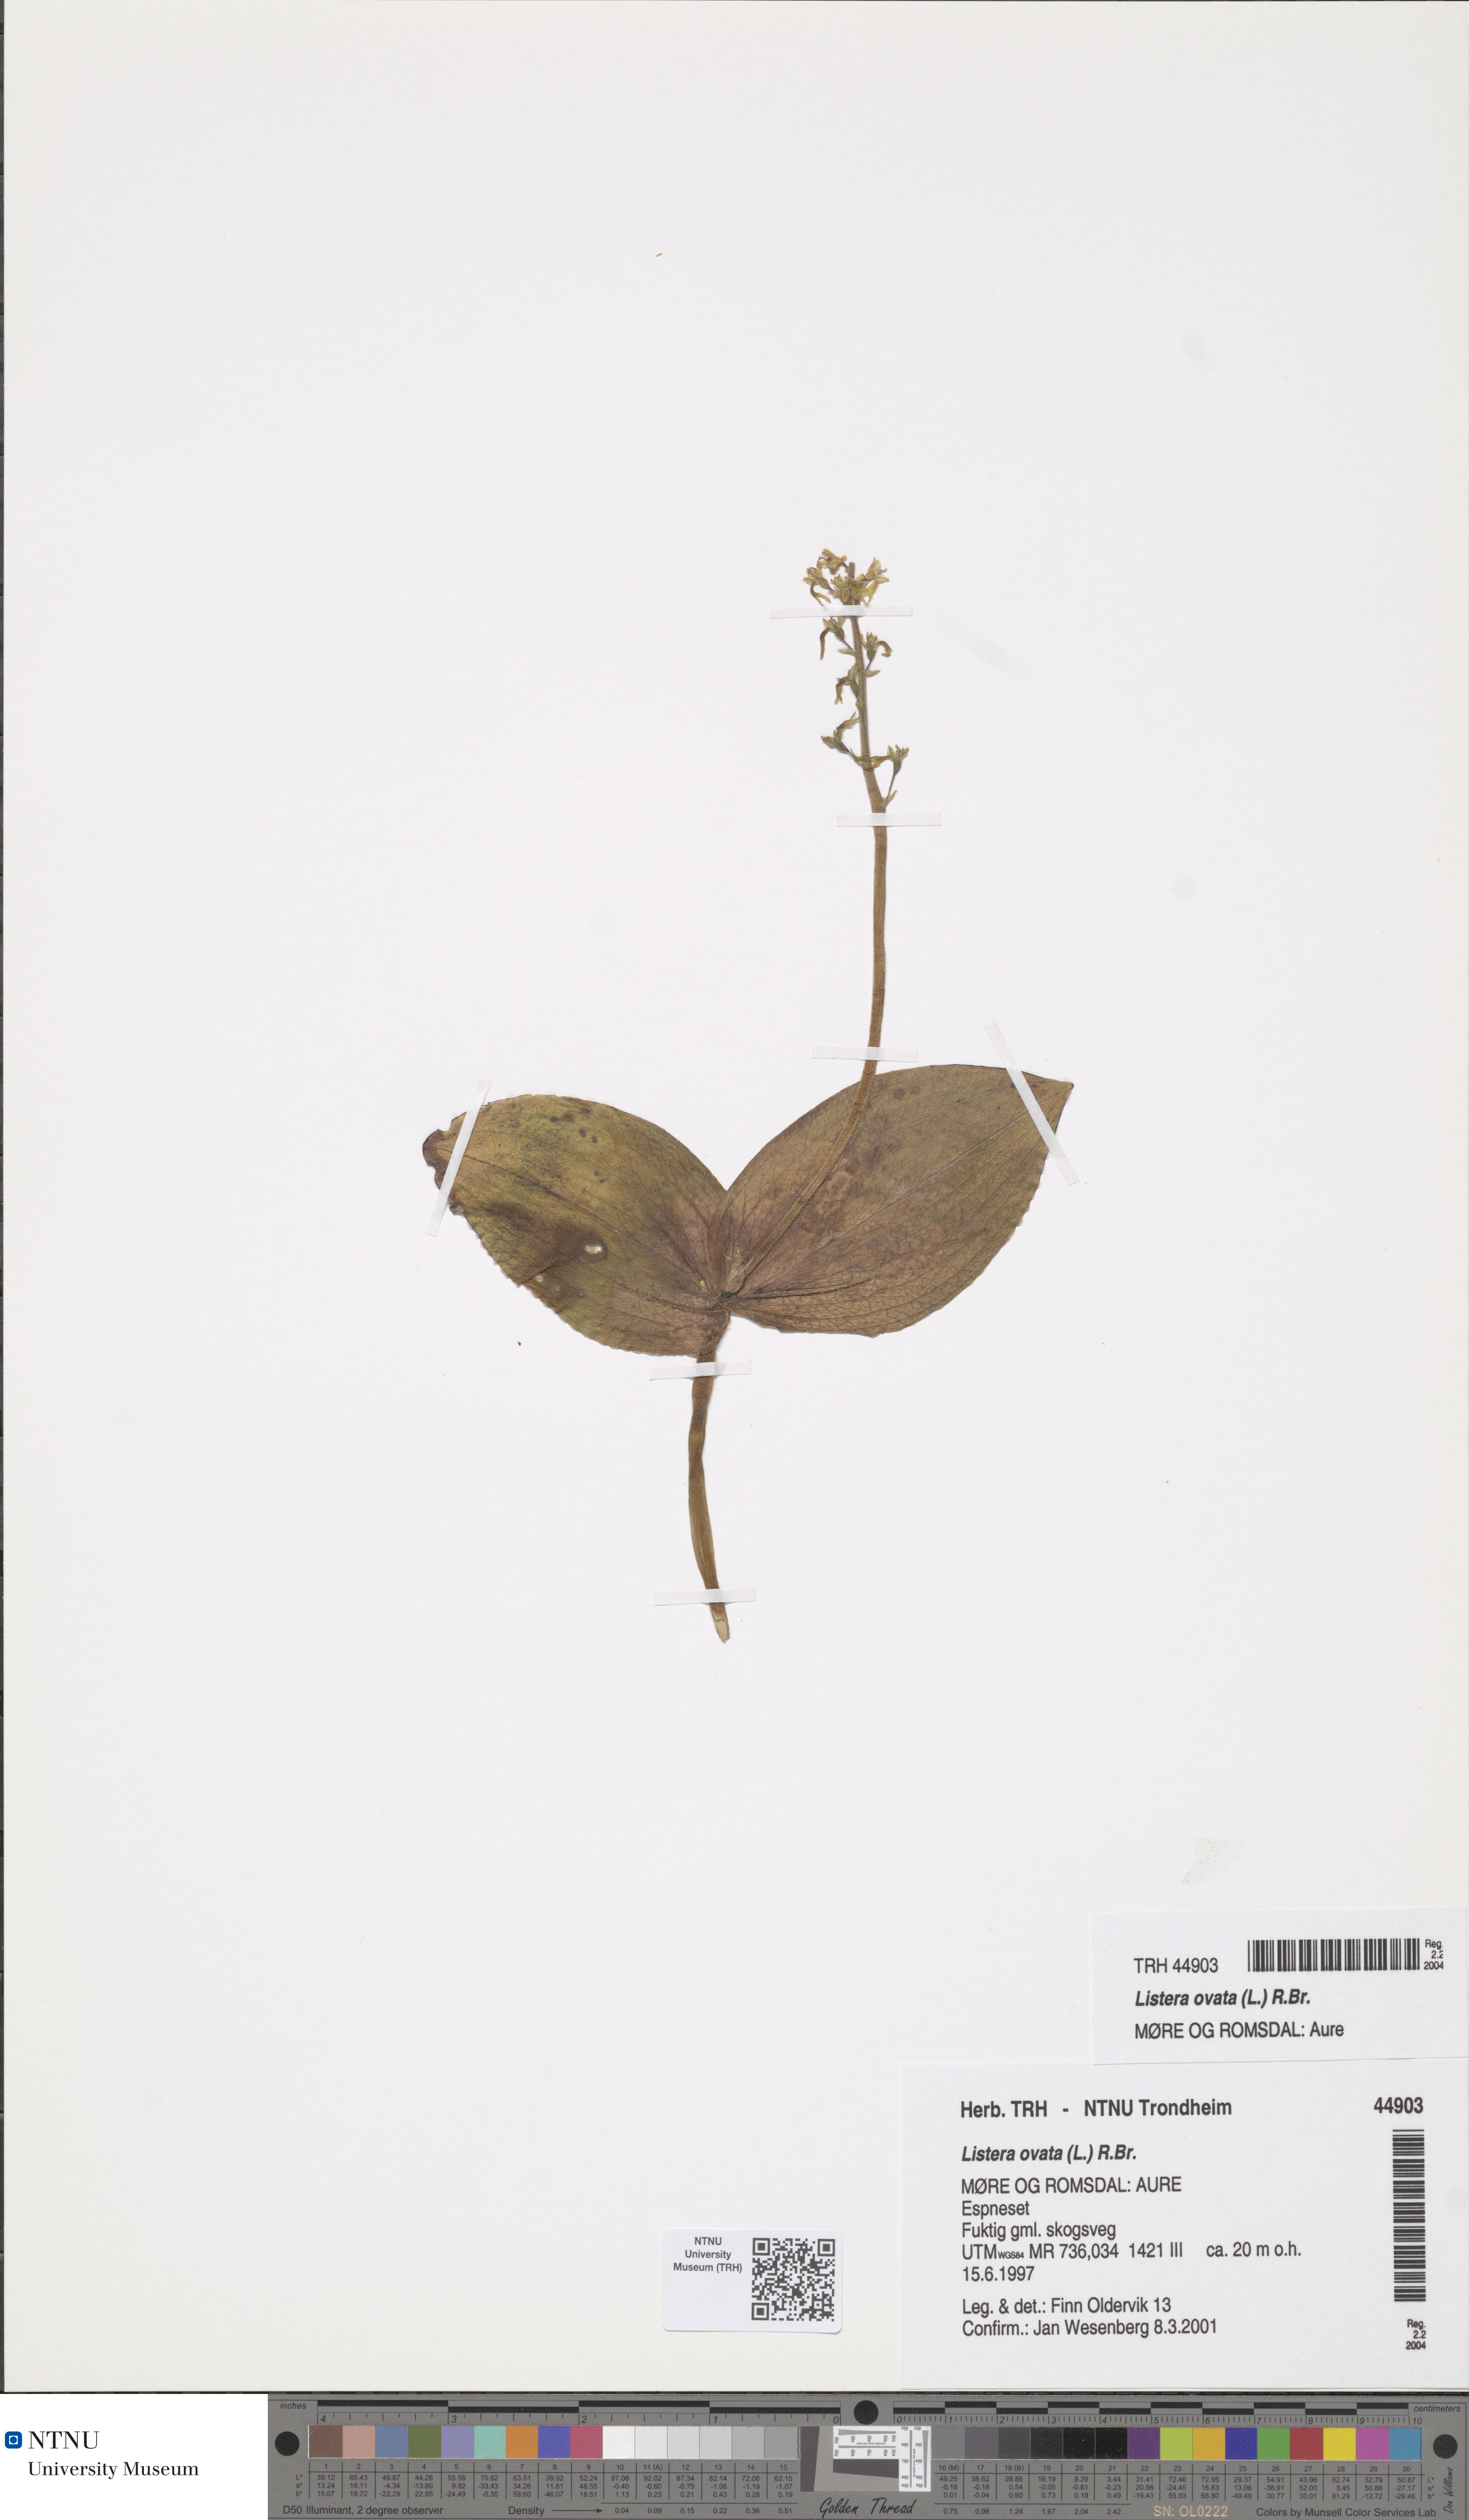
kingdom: Plantae
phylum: Tracheophyta
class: Liliopsida
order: Asparagales
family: Orchidaceae
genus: Neottia
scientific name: Neottia ovata
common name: Common twayblade
